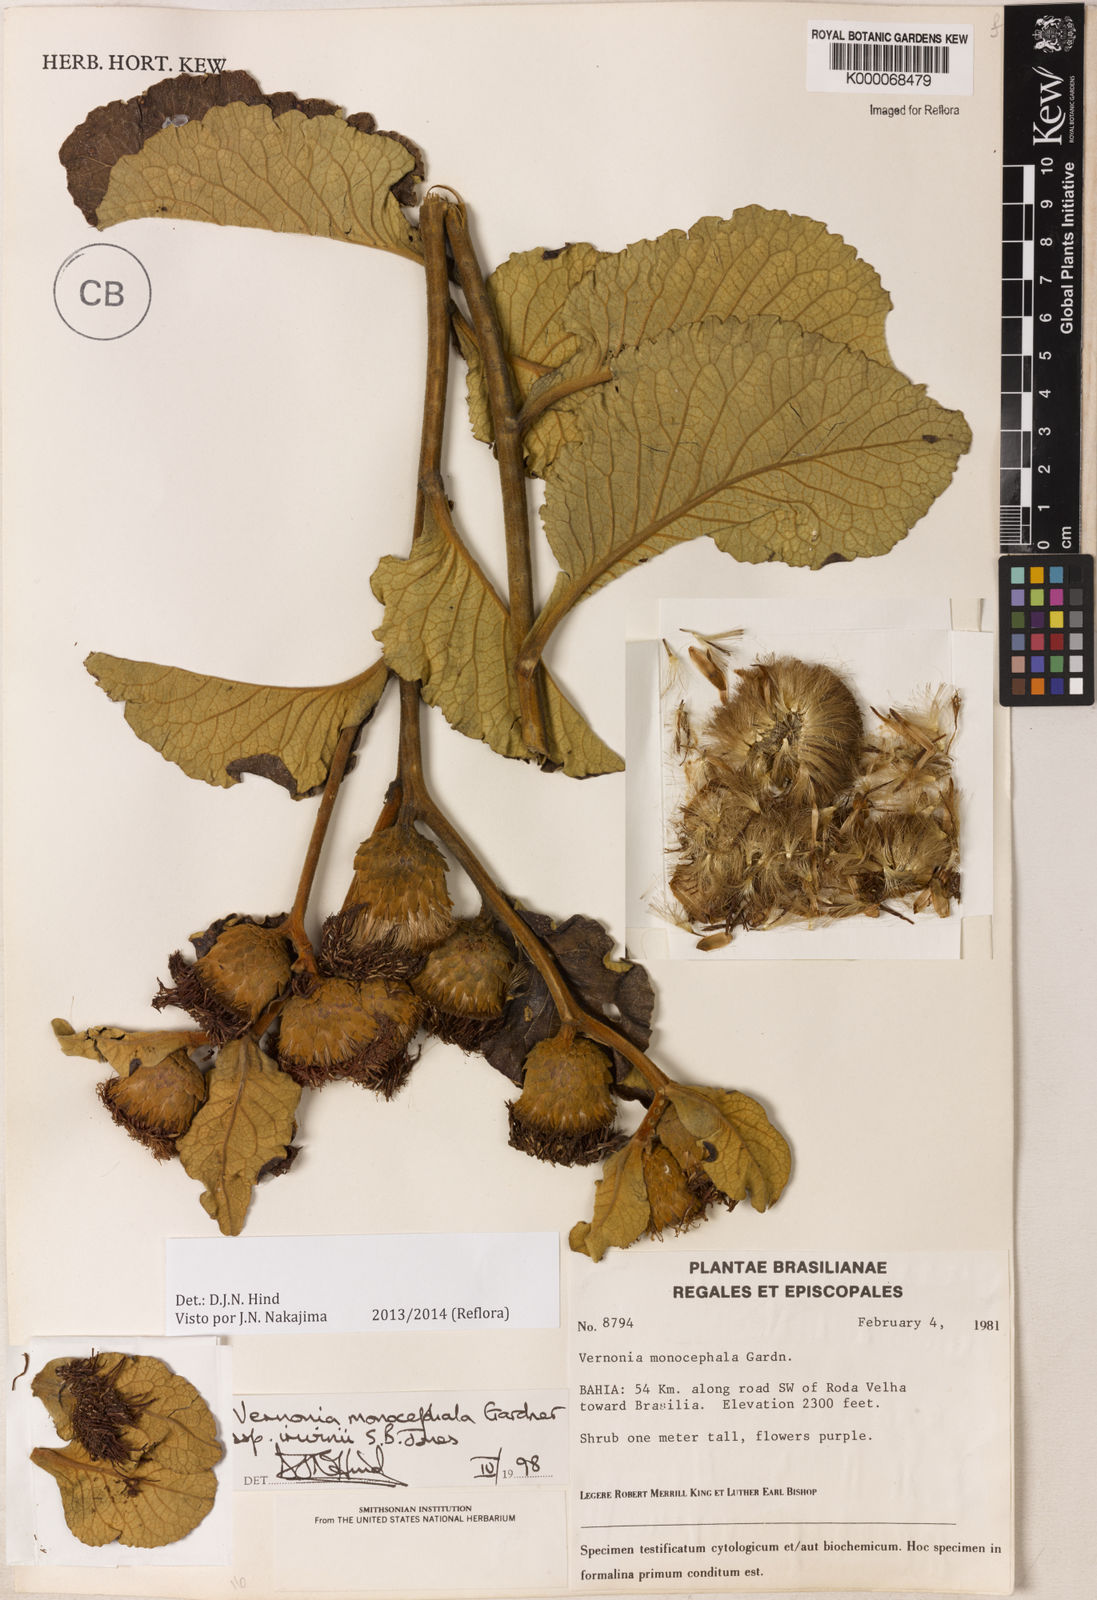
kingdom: Plantae
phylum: Tracheophyta
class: Magnoliopsida
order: Asterales
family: Asteraceae
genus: Lessingianthus
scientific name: Lessingianthus semirii
